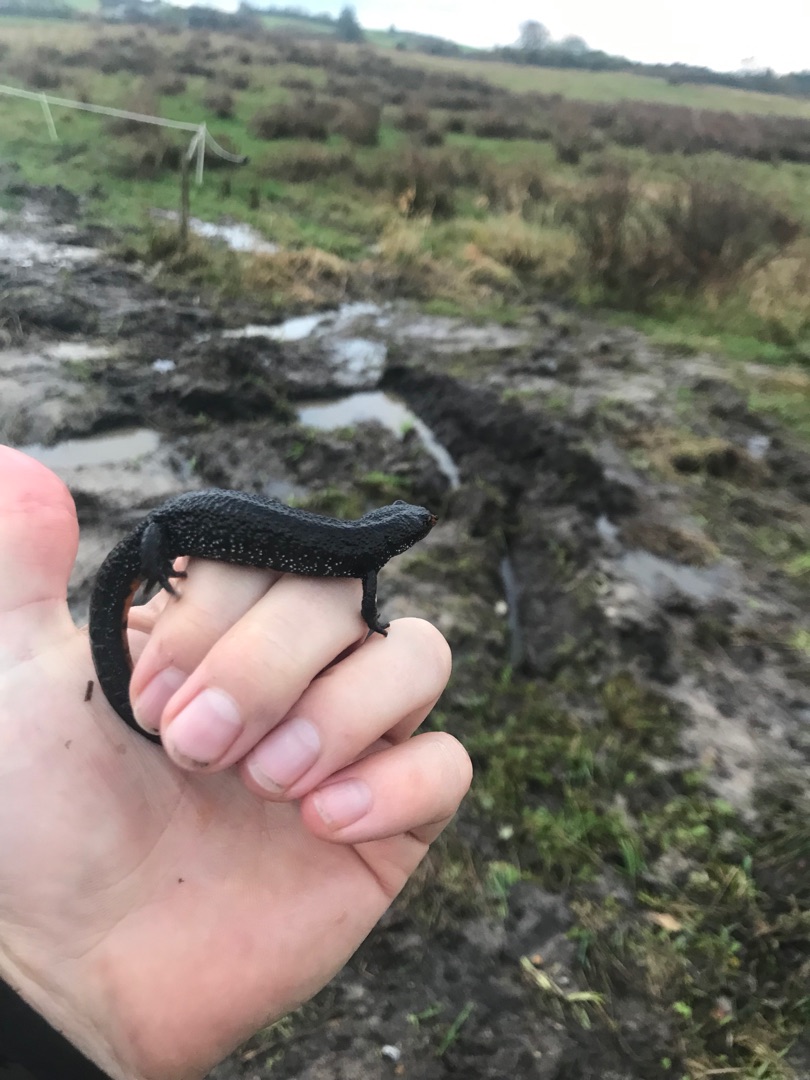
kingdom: Animalia
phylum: Chordata
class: Amphibia
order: Caudata
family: Salamandridae
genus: Triturus
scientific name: Triturus cristatus
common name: Stor vandsalamander
